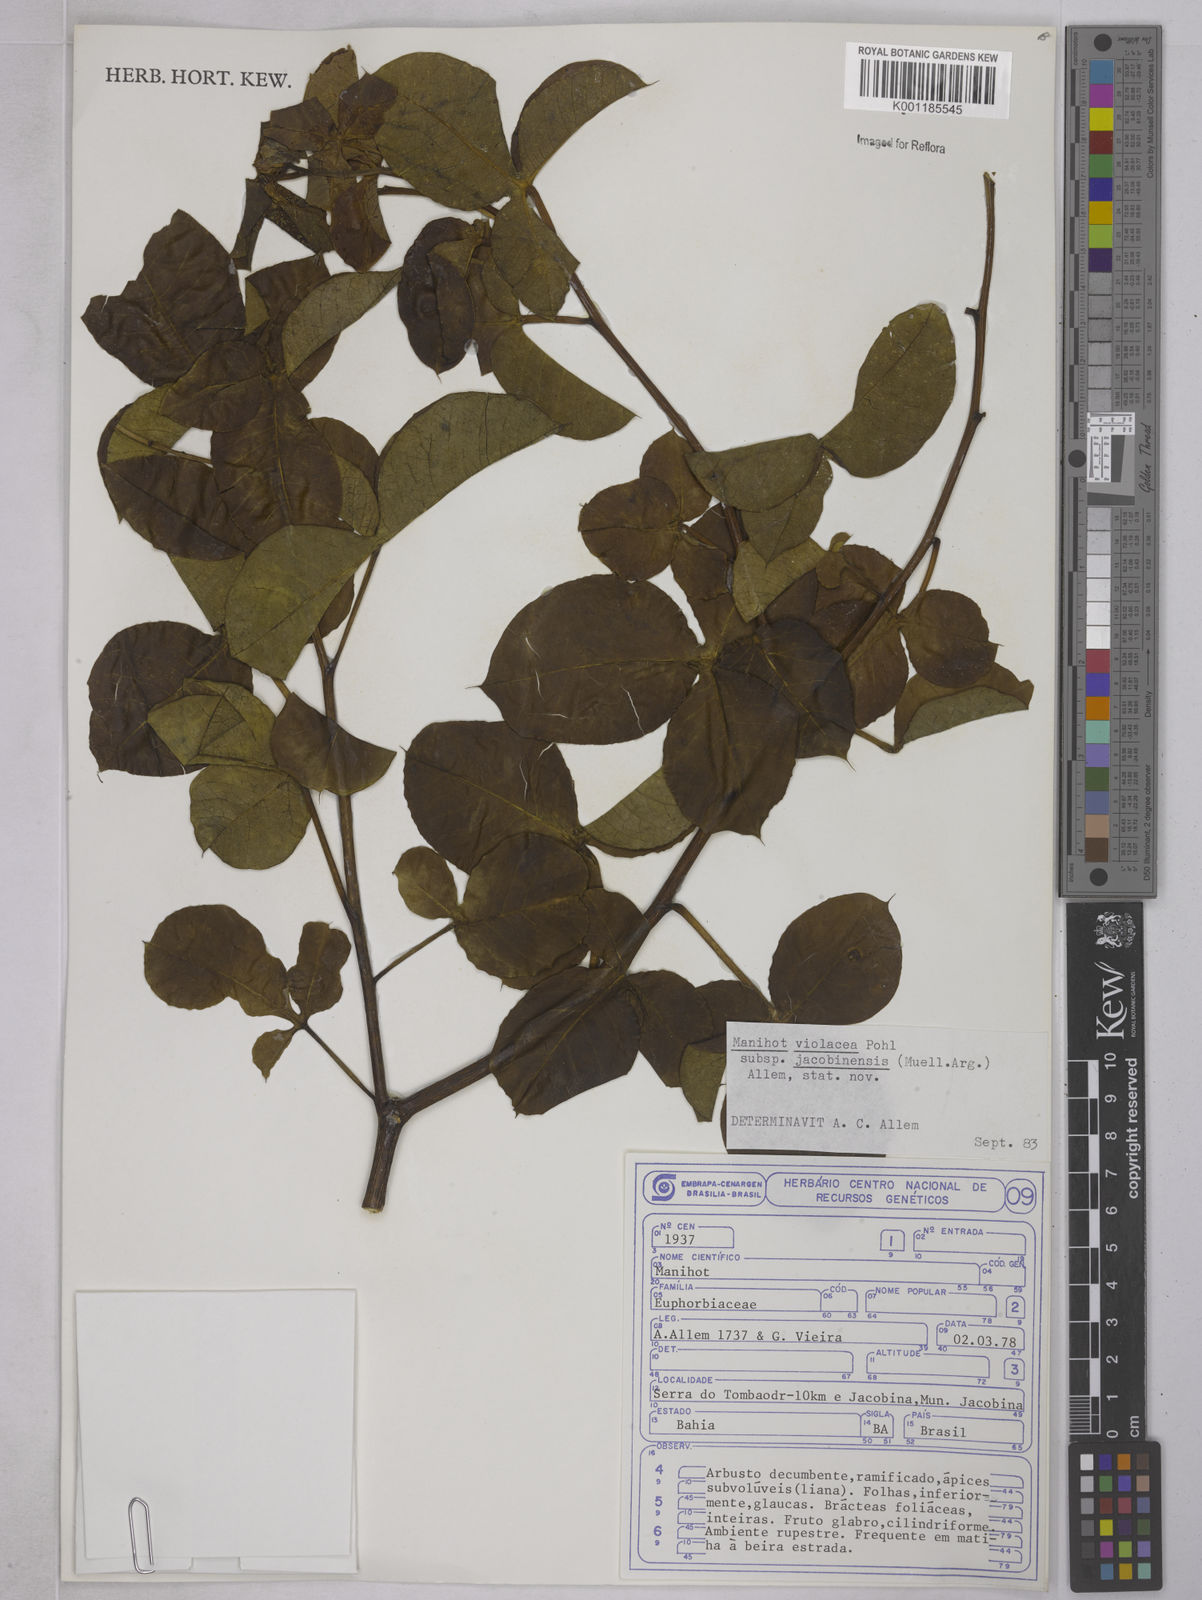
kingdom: Plantae
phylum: Tracheophyta
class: Magnoliopsida
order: Malpighiales
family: Euphorbiaceae
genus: Manihot
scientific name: Manihot
